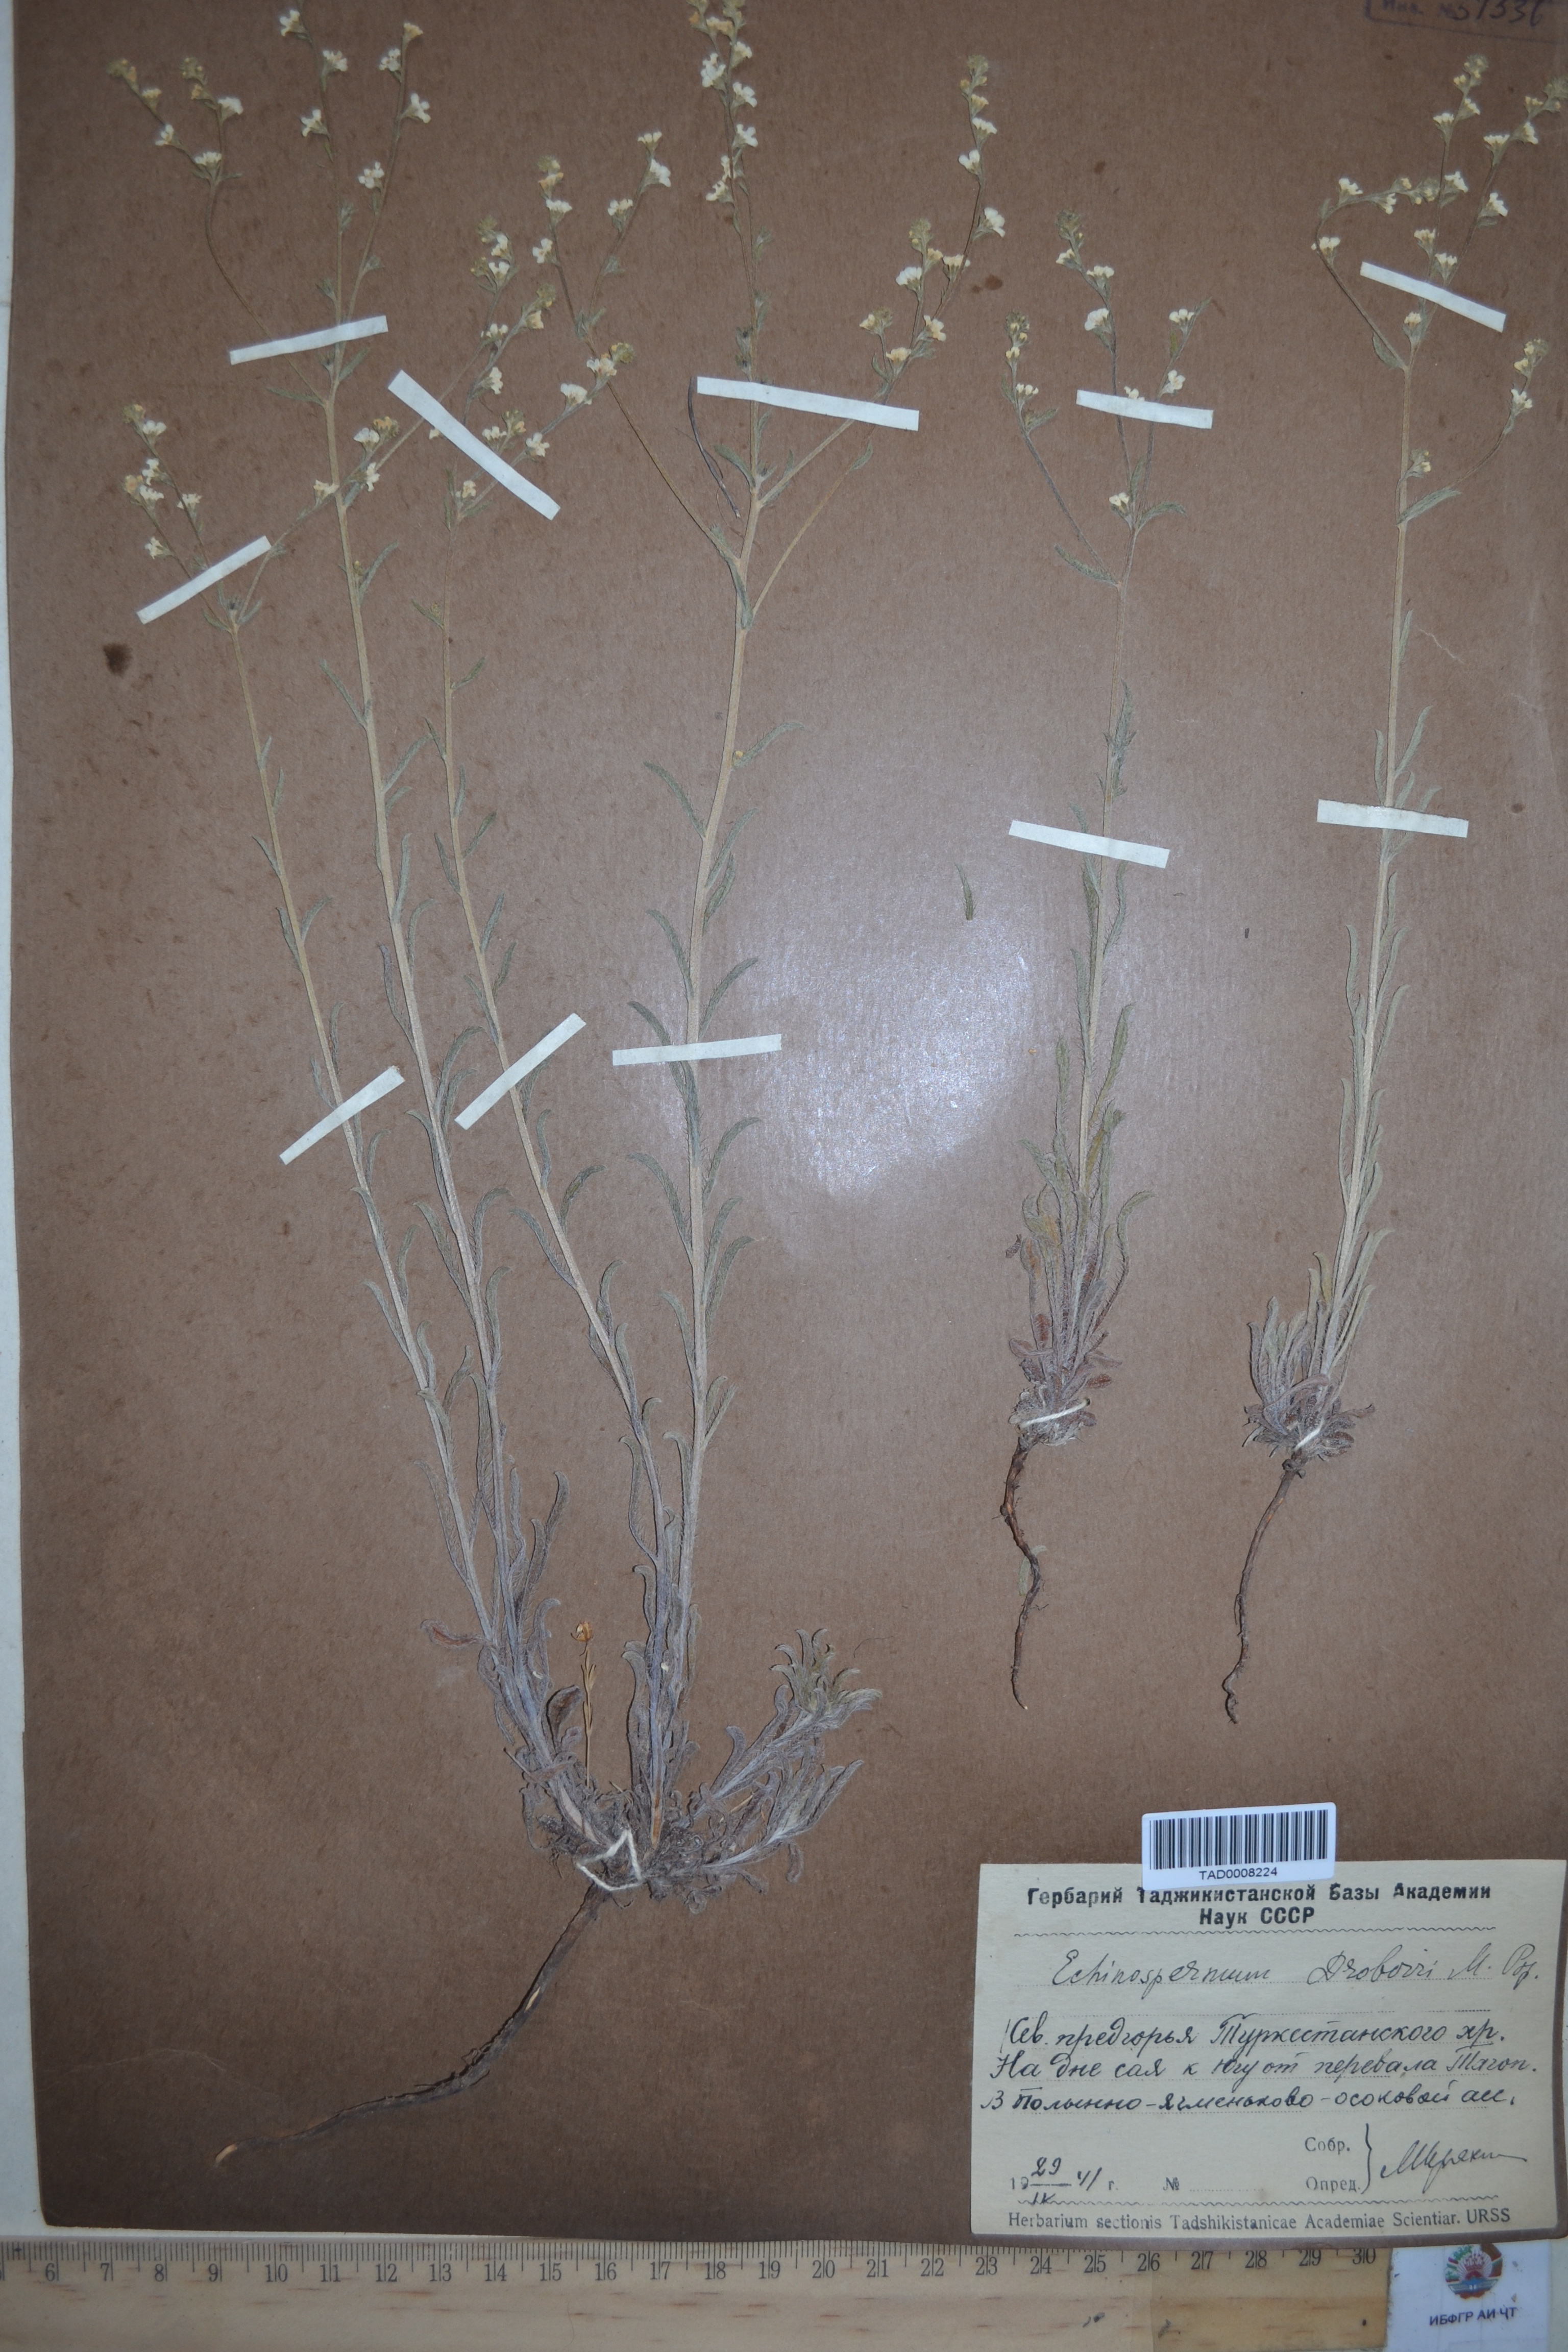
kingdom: Plantae
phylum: Tracheophyta
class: Magnoliopsida
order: Boraginales
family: Boraginaceae
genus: Rochelia
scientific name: Rochelia drobovii
